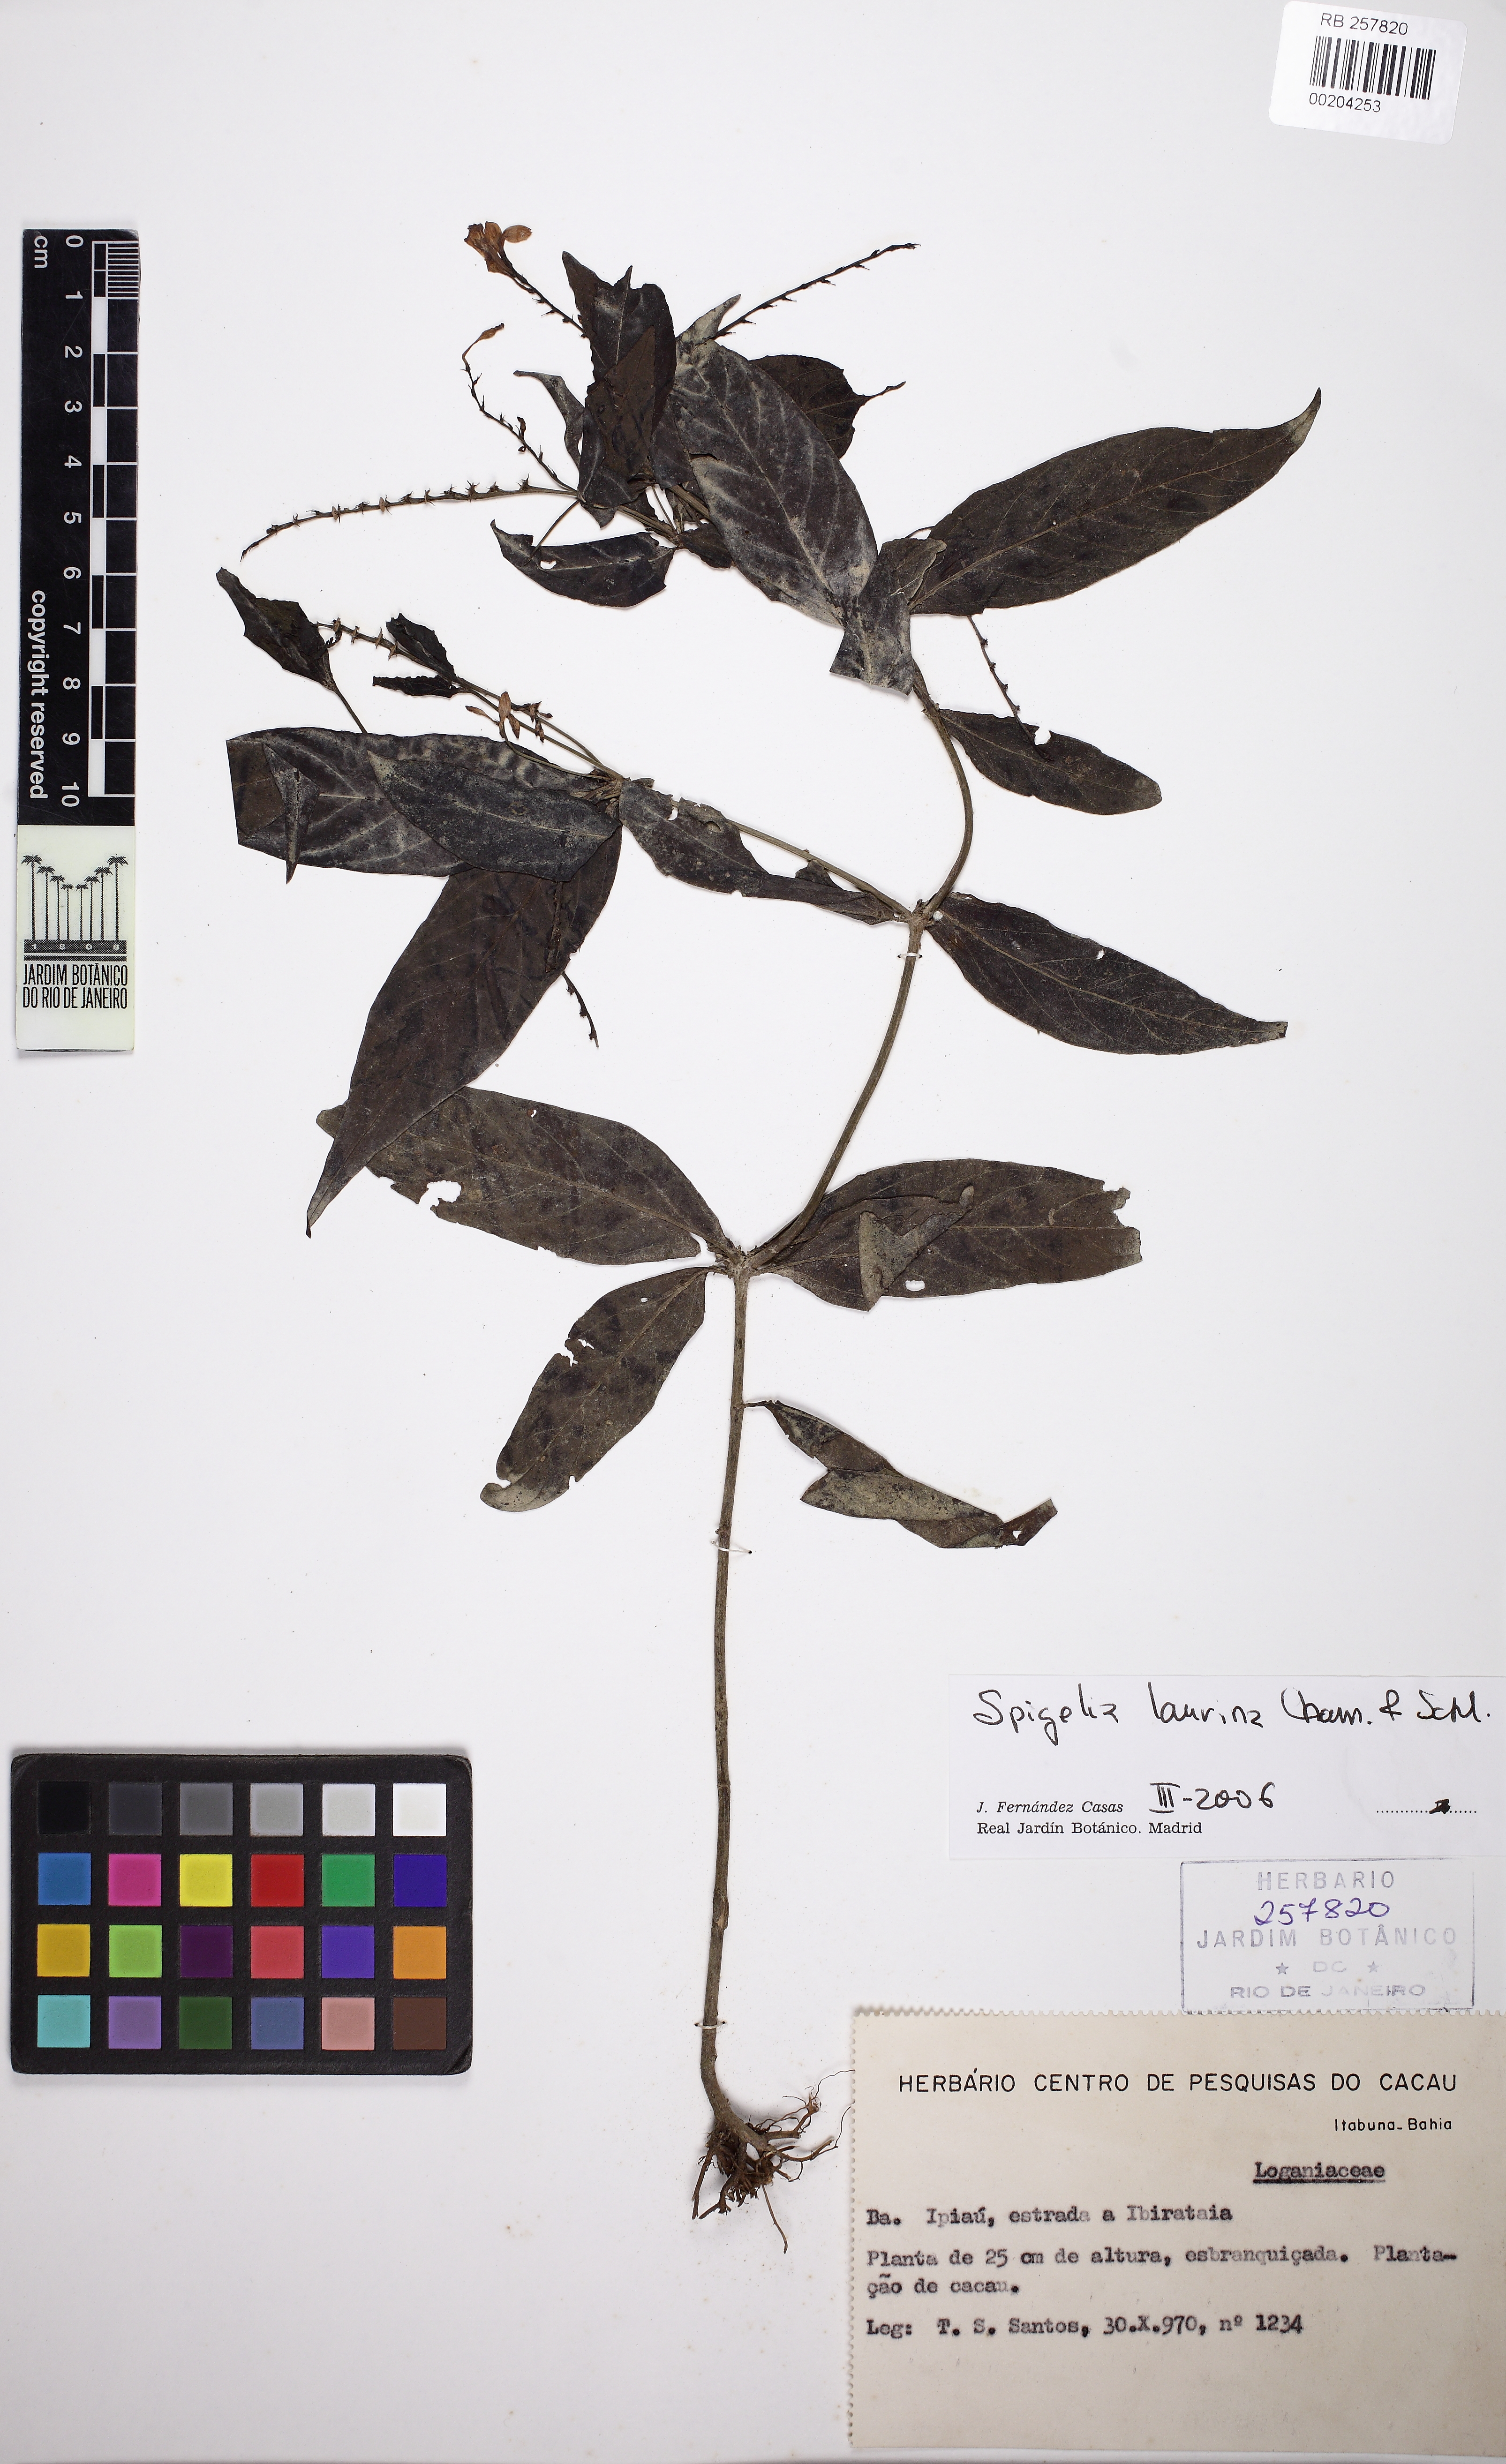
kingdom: Plantae
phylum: Tracheophyta
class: Magnoliopsida
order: Gentianales
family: Loganiaceae
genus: Spigelia
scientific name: Spigelia laurina
